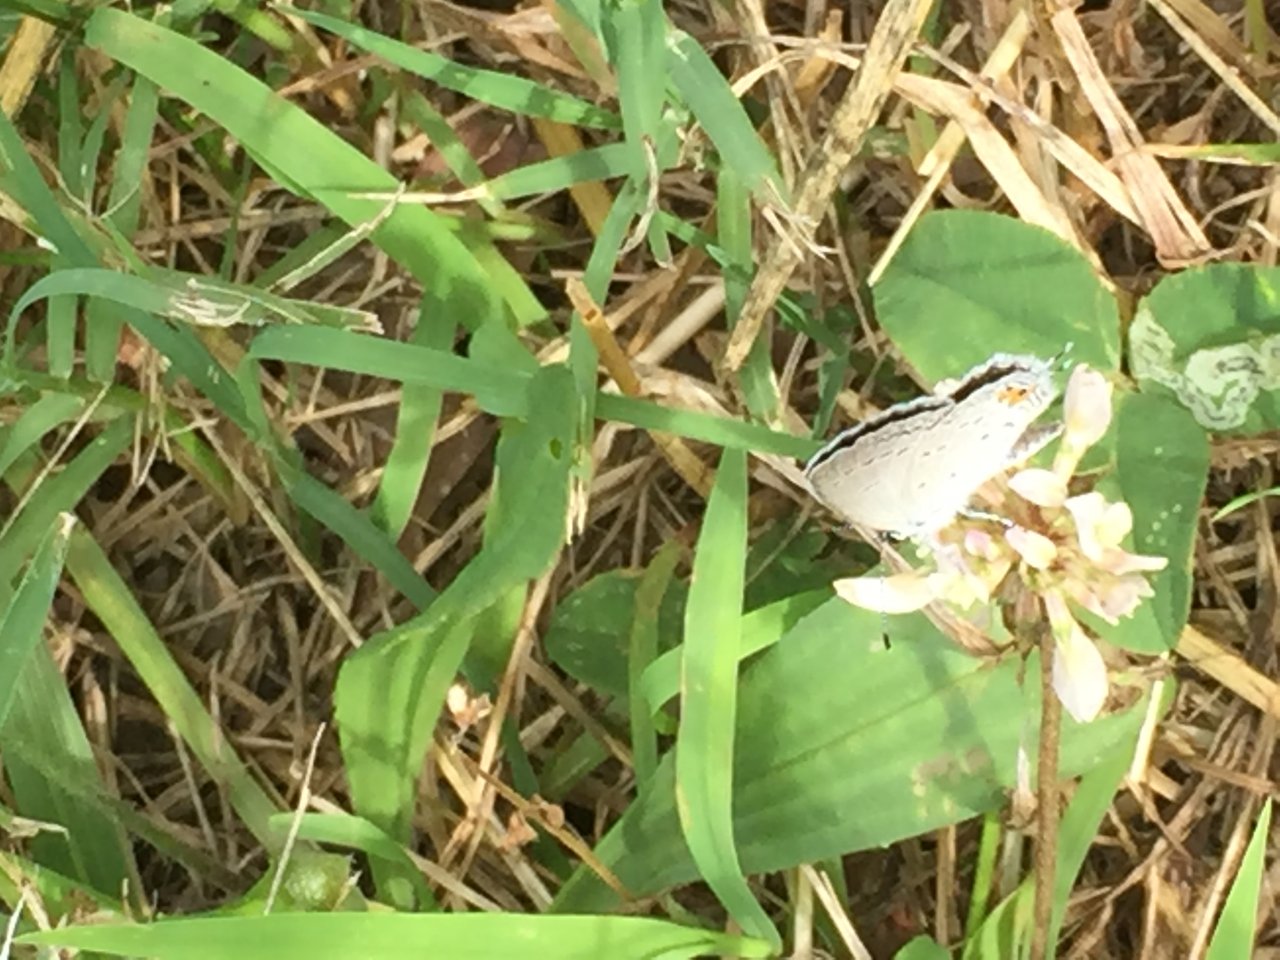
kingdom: Animalia
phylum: Arthropoda
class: Insecta
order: Lepidoptera
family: Lycaenidae
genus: Elkalyce
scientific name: Elkalyce comyntas
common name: Eastern Tailed-Blue
